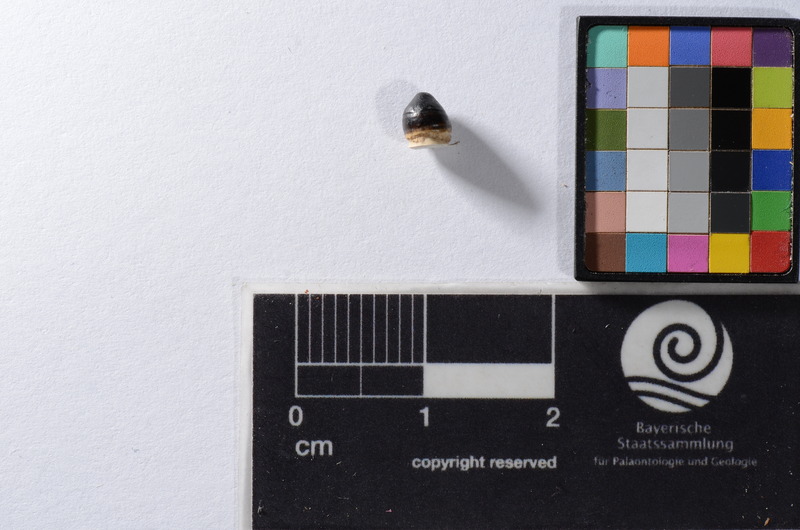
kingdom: Animalia
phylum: Chordata
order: Cypriniformes
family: Cyprinidae
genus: Capitodus
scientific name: Capitodus
